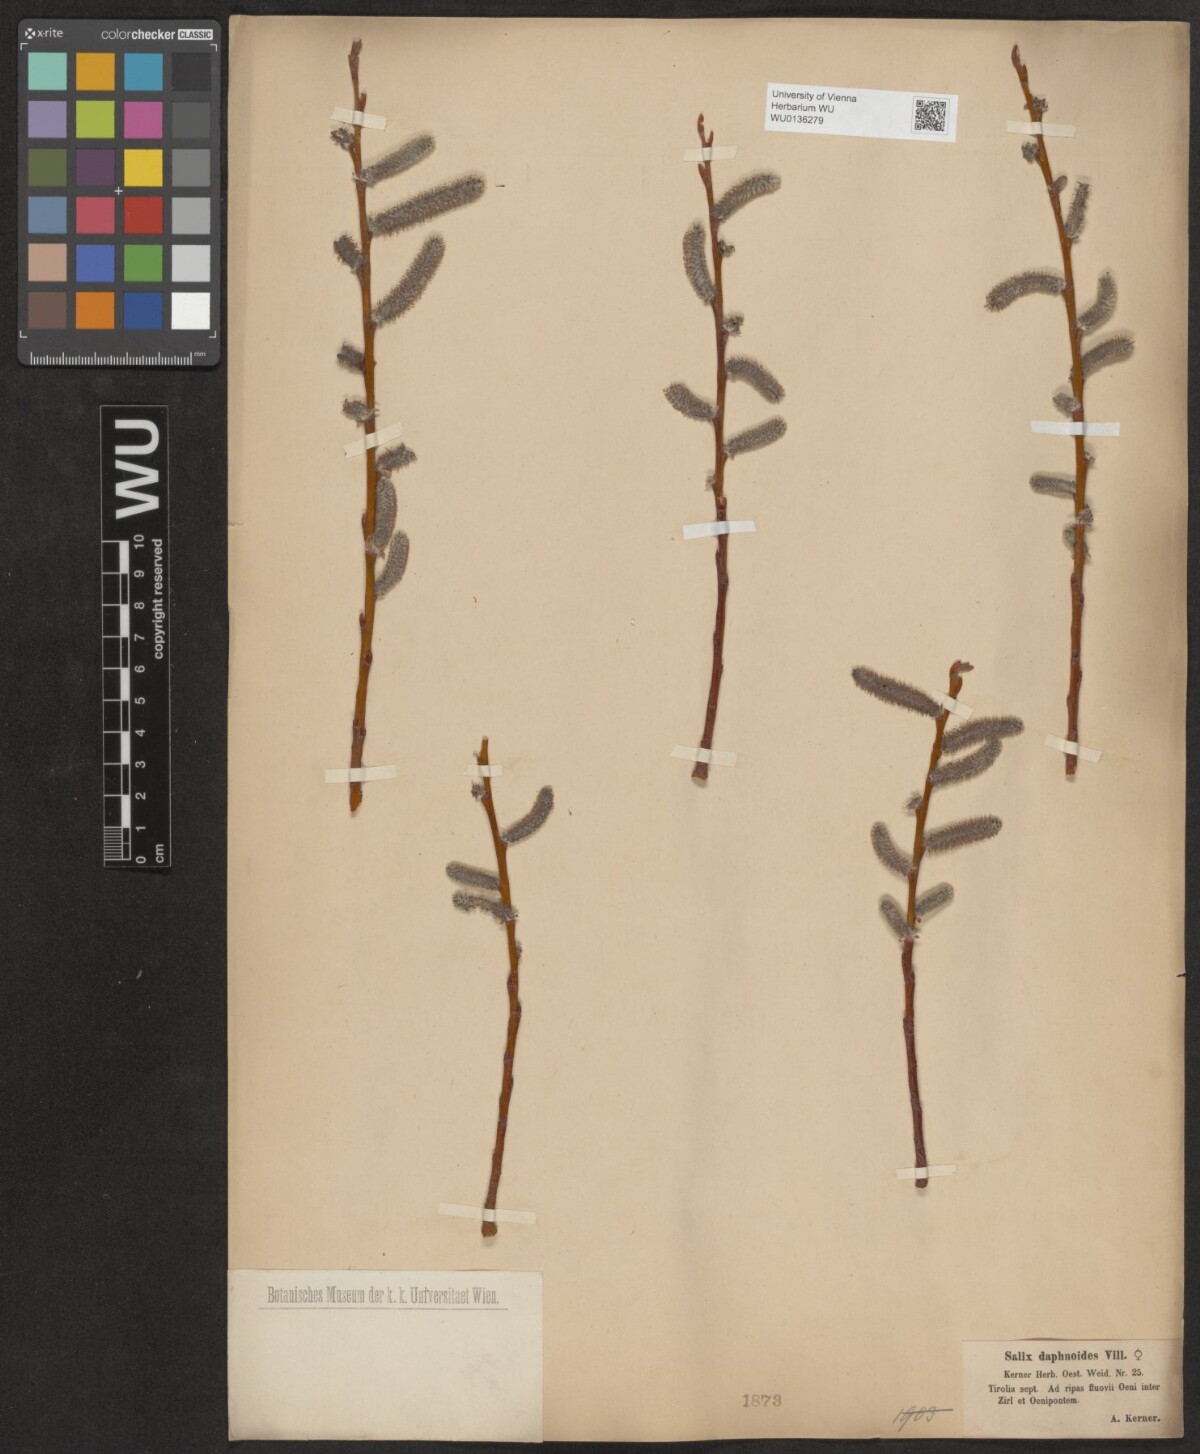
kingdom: Plantae
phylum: Tracheophyta
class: Magnoliopsida
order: Malpighiales
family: Salicaceae
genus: Salix
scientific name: Salix daphnoides
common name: European violet-willow
